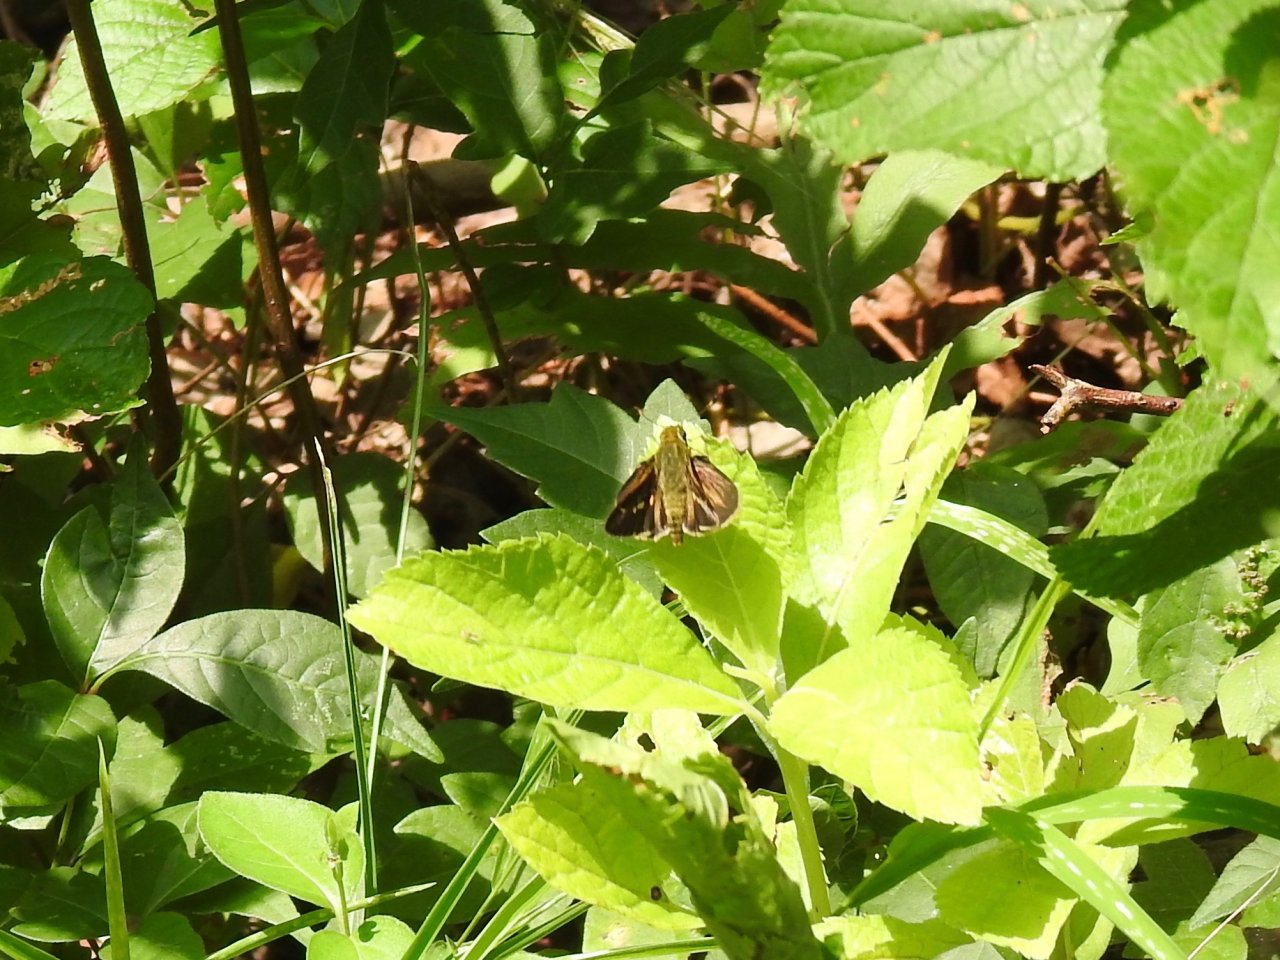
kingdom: Animalia
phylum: Arthropoda
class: Insecta
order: Lepidoptera
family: Hesperiidae
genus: Vernia
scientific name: Vernia verna
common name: Little Glassywing
